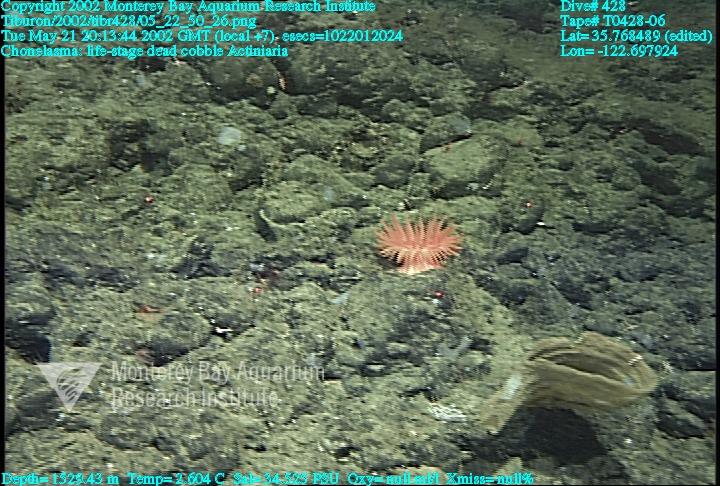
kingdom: Animalia
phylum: Porifera
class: Hexactinellida
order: Sceptrulophora
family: Euretidae
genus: Chonelasma
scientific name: Chonelasma
